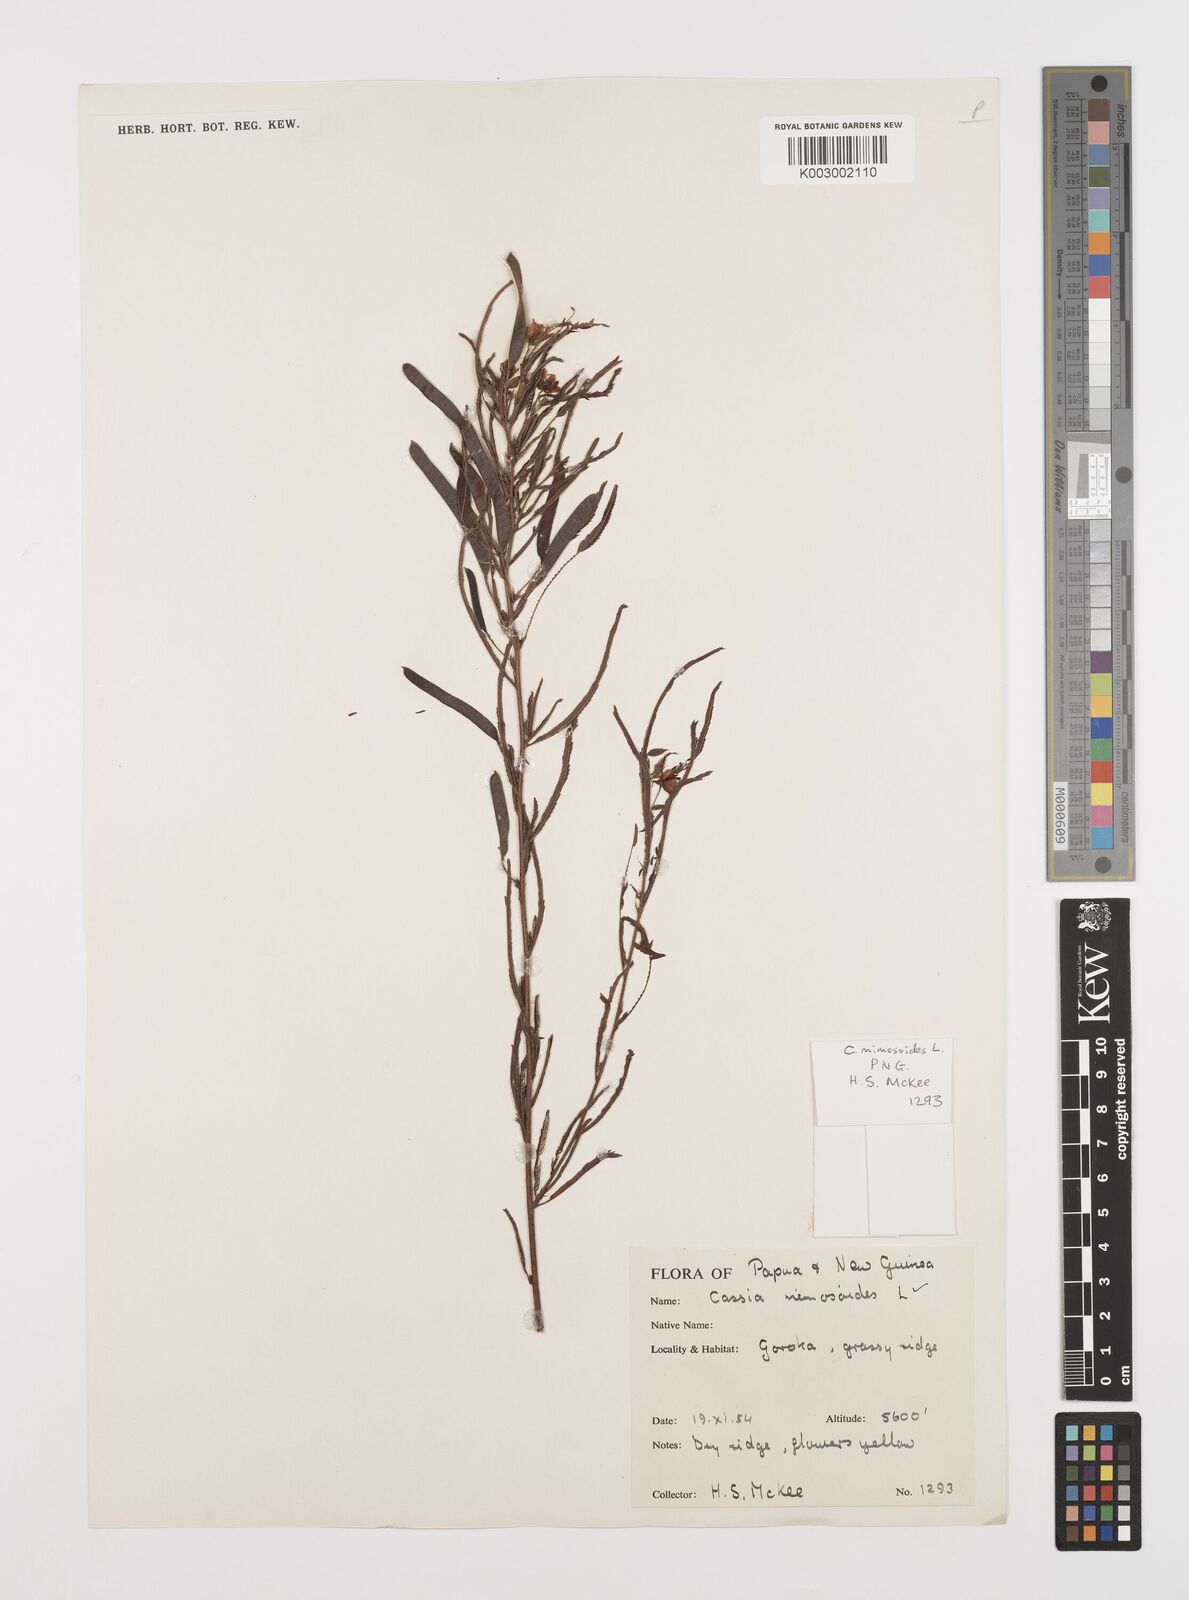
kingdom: Plantae
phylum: Tracheophyta
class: Magnoliopsida
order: Fabales
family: Fabaceae
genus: Chamaecrista
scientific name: Chamaecrista mimosoides
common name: Fish-bone cassia
